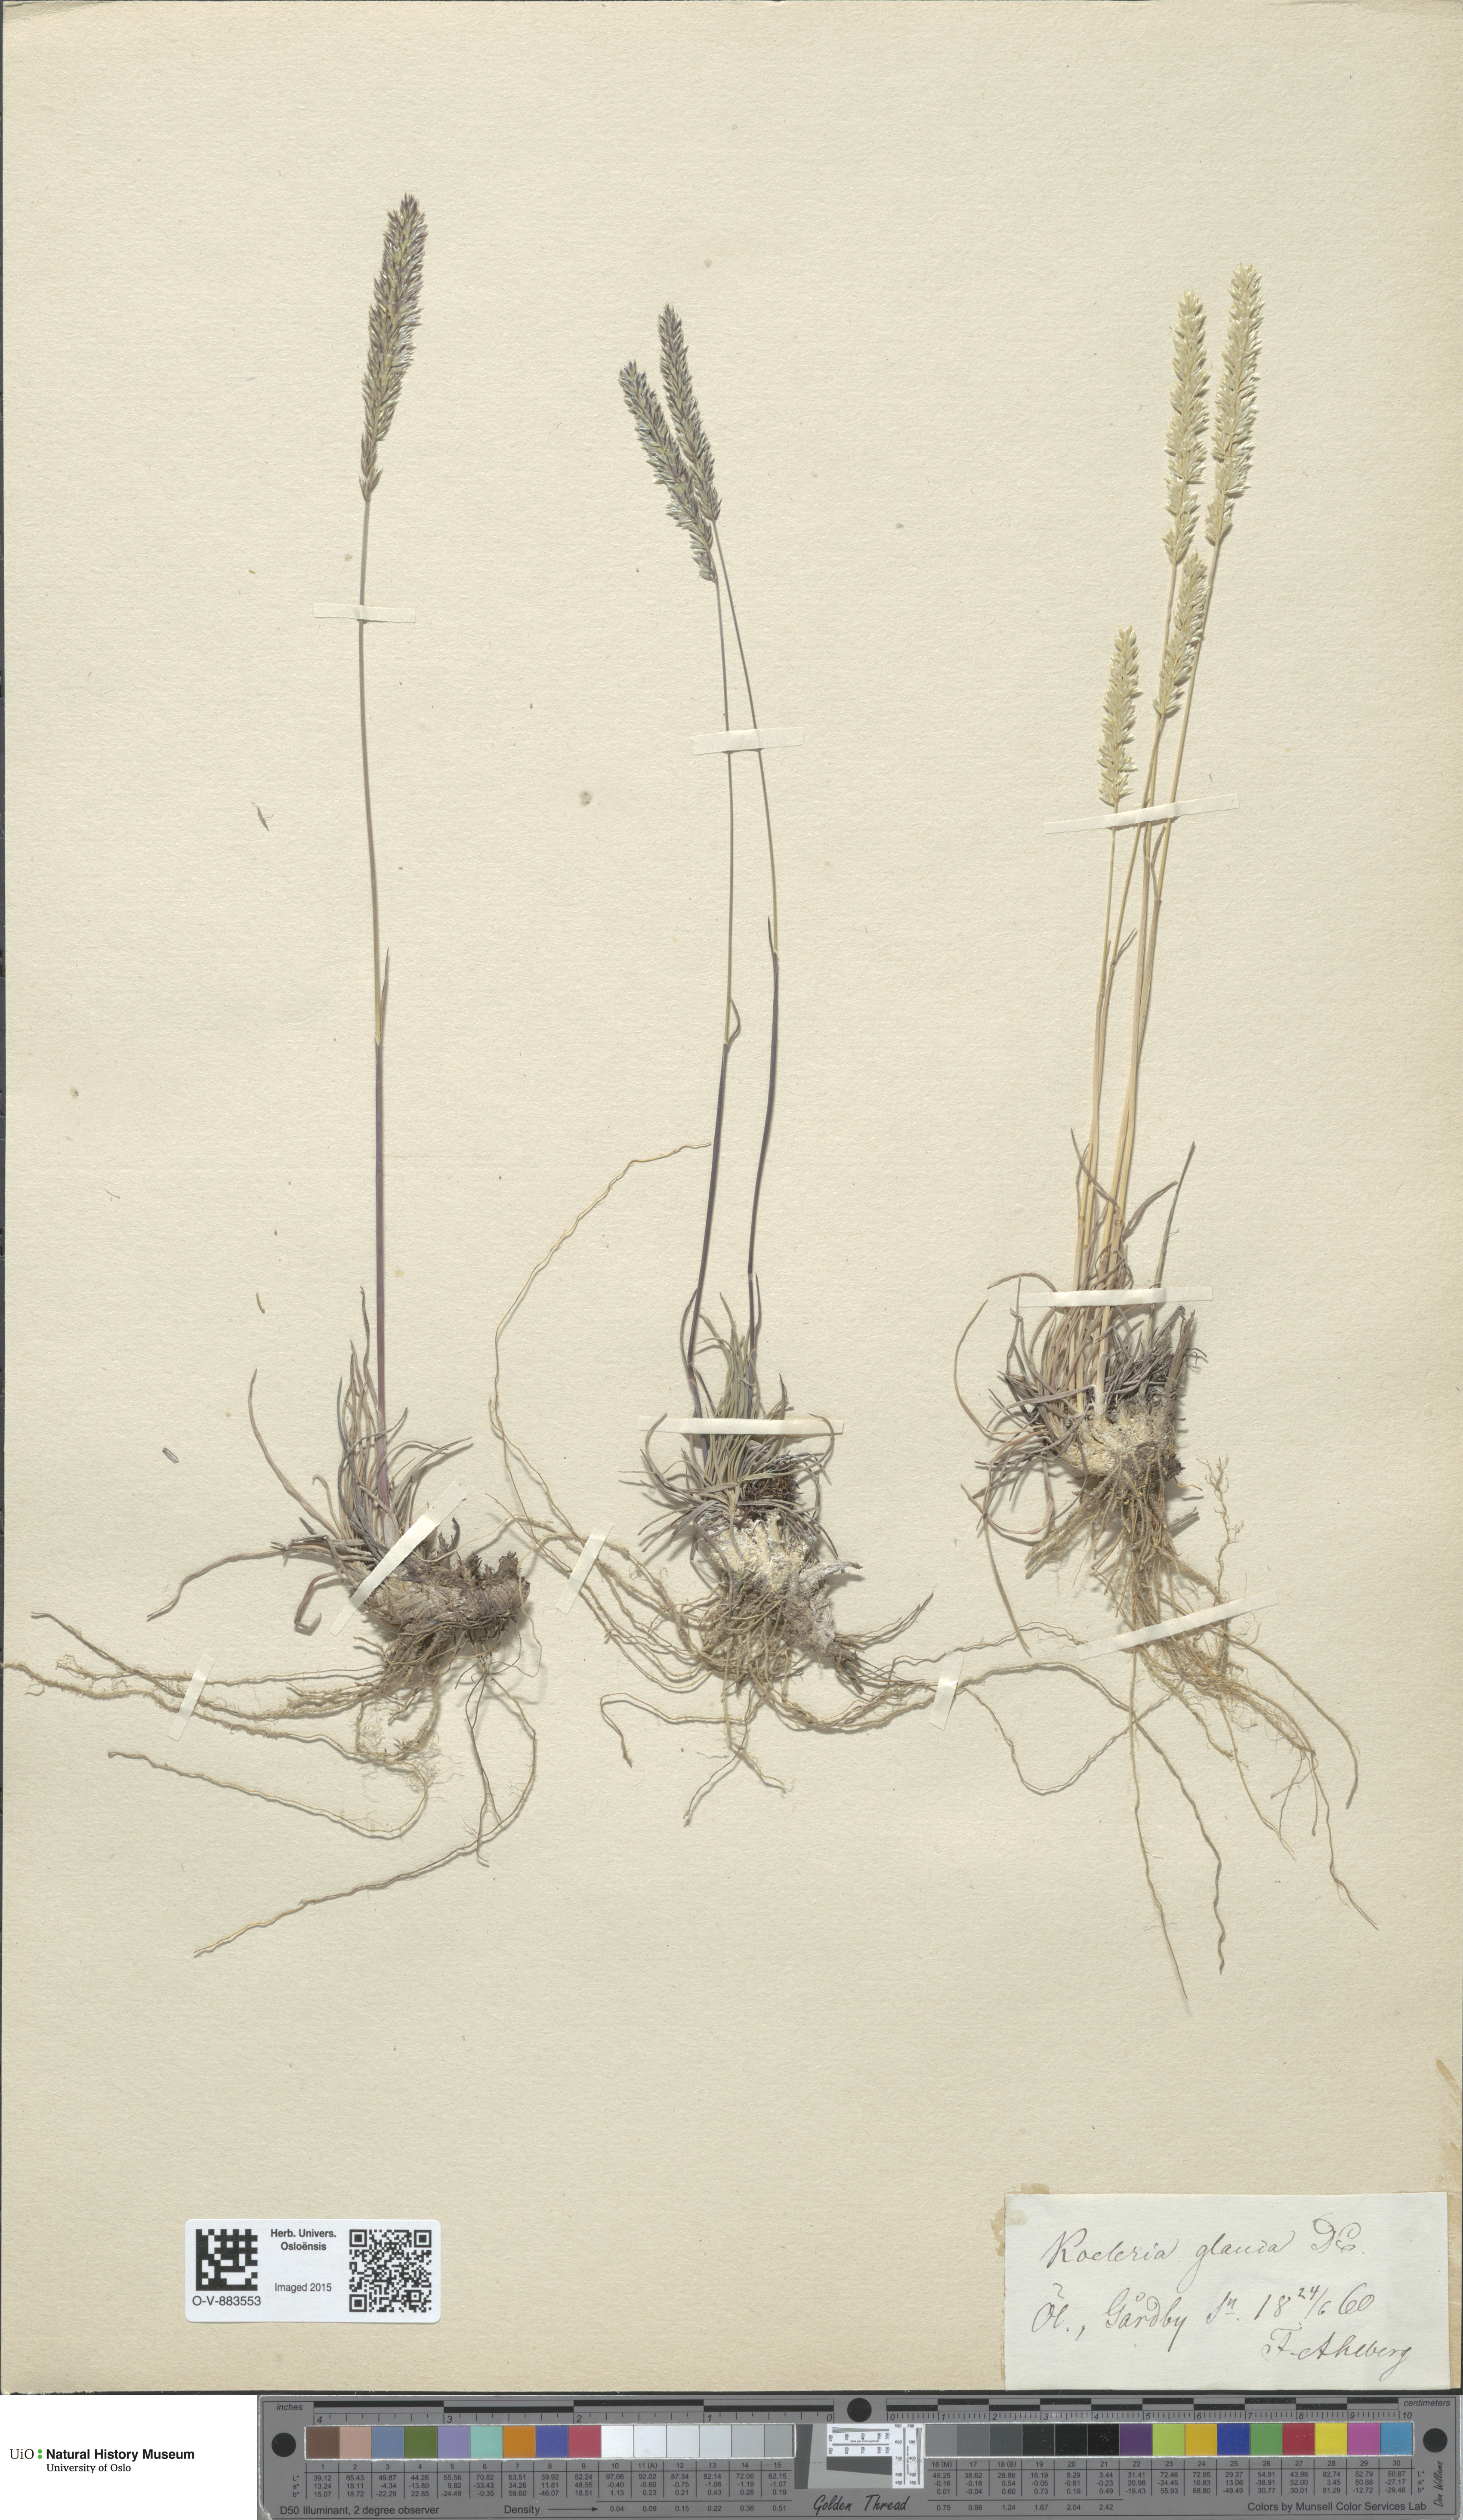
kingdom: Plantae
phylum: Tracheophyta
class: Liliopsida
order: Poales
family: Poaceae
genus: Koeleria
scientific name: Koeleria glauca
